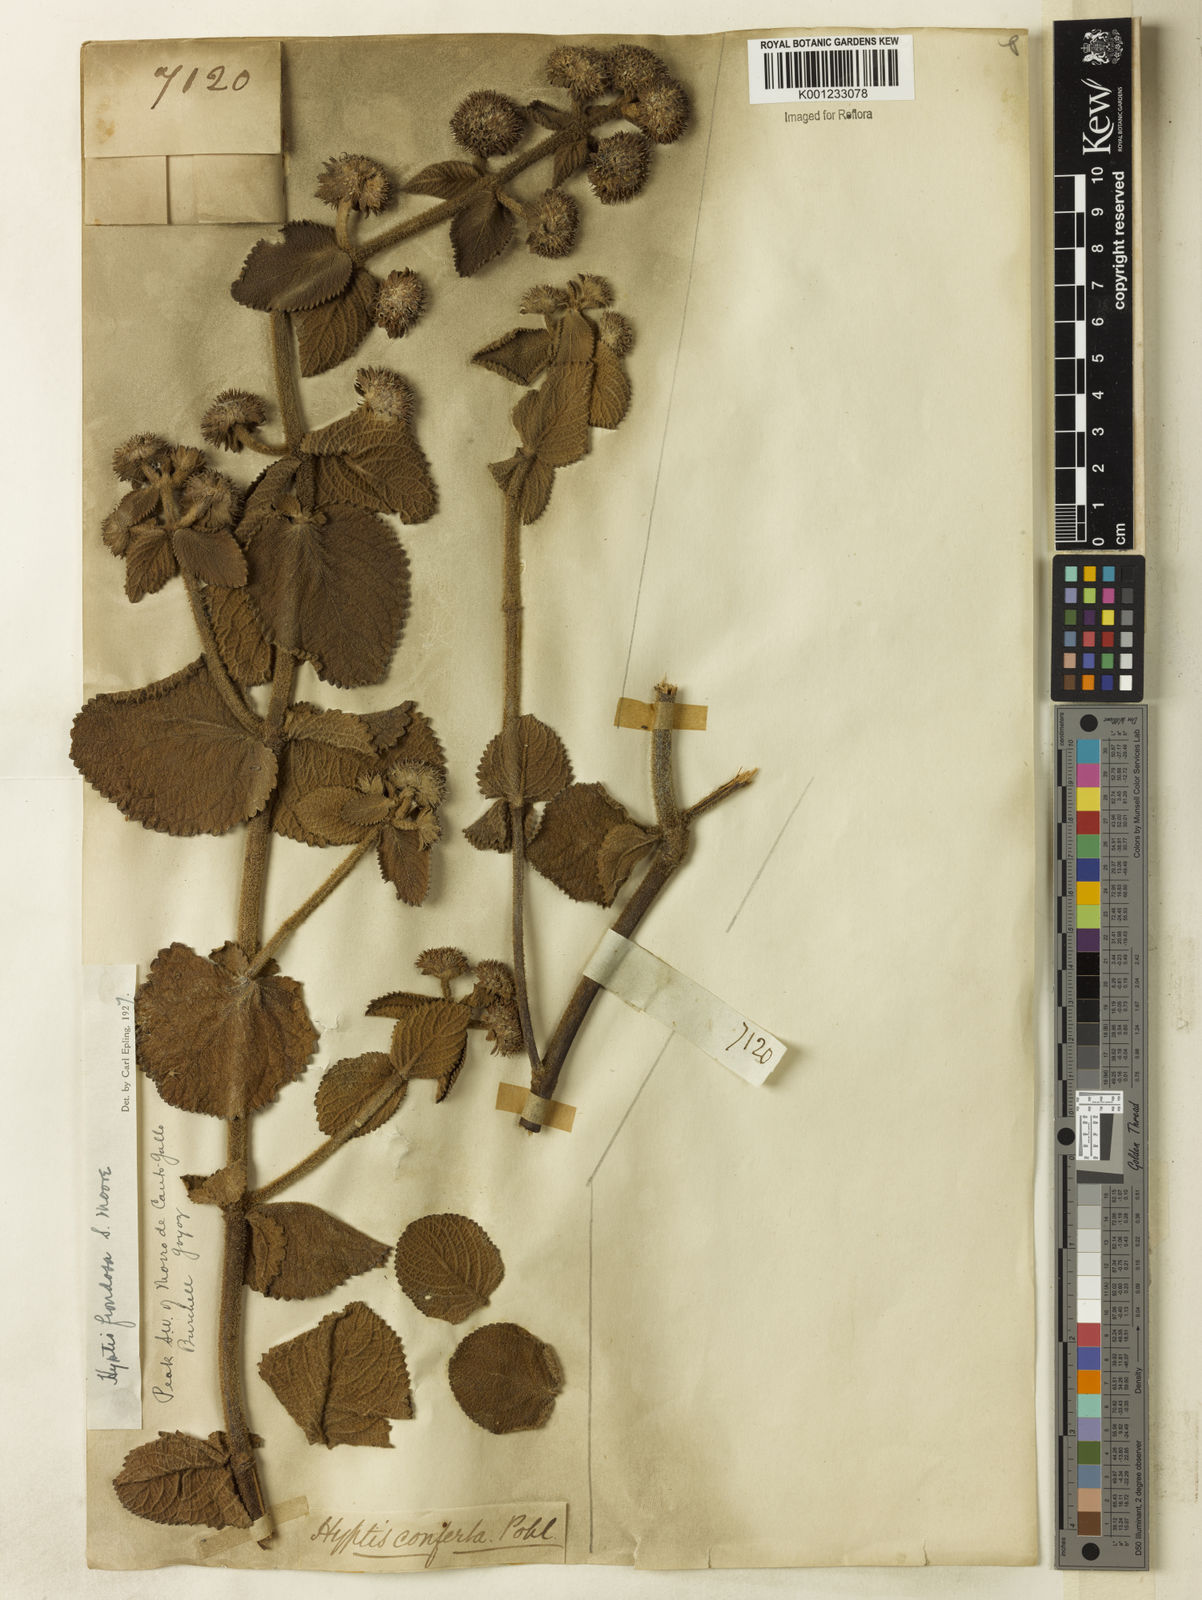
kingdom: Plantae
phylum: Tracheophyta
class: Magnoliopsida
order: Lamiales
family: Lamiaceae
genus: Hyptis
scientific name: Hyptis villosa
